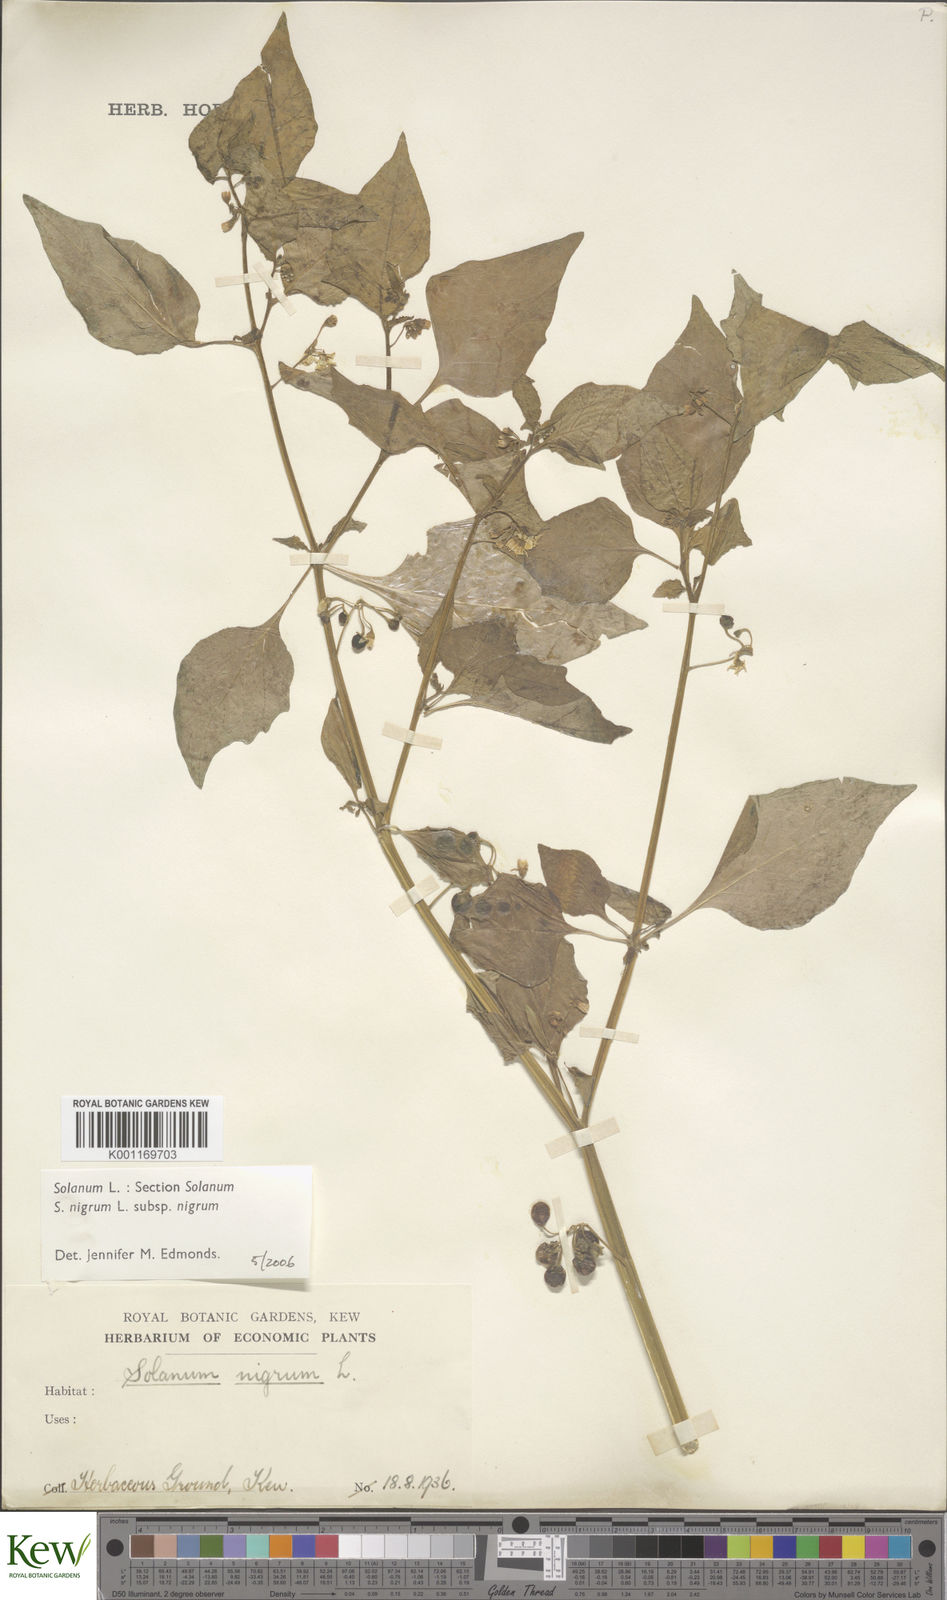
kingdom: Plantae
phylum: Tracheophyta
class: Magnoliopsida
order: Solanales
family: Solanaceae
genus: Solanum
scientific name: Solanum nigrum
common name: Black nightshade
